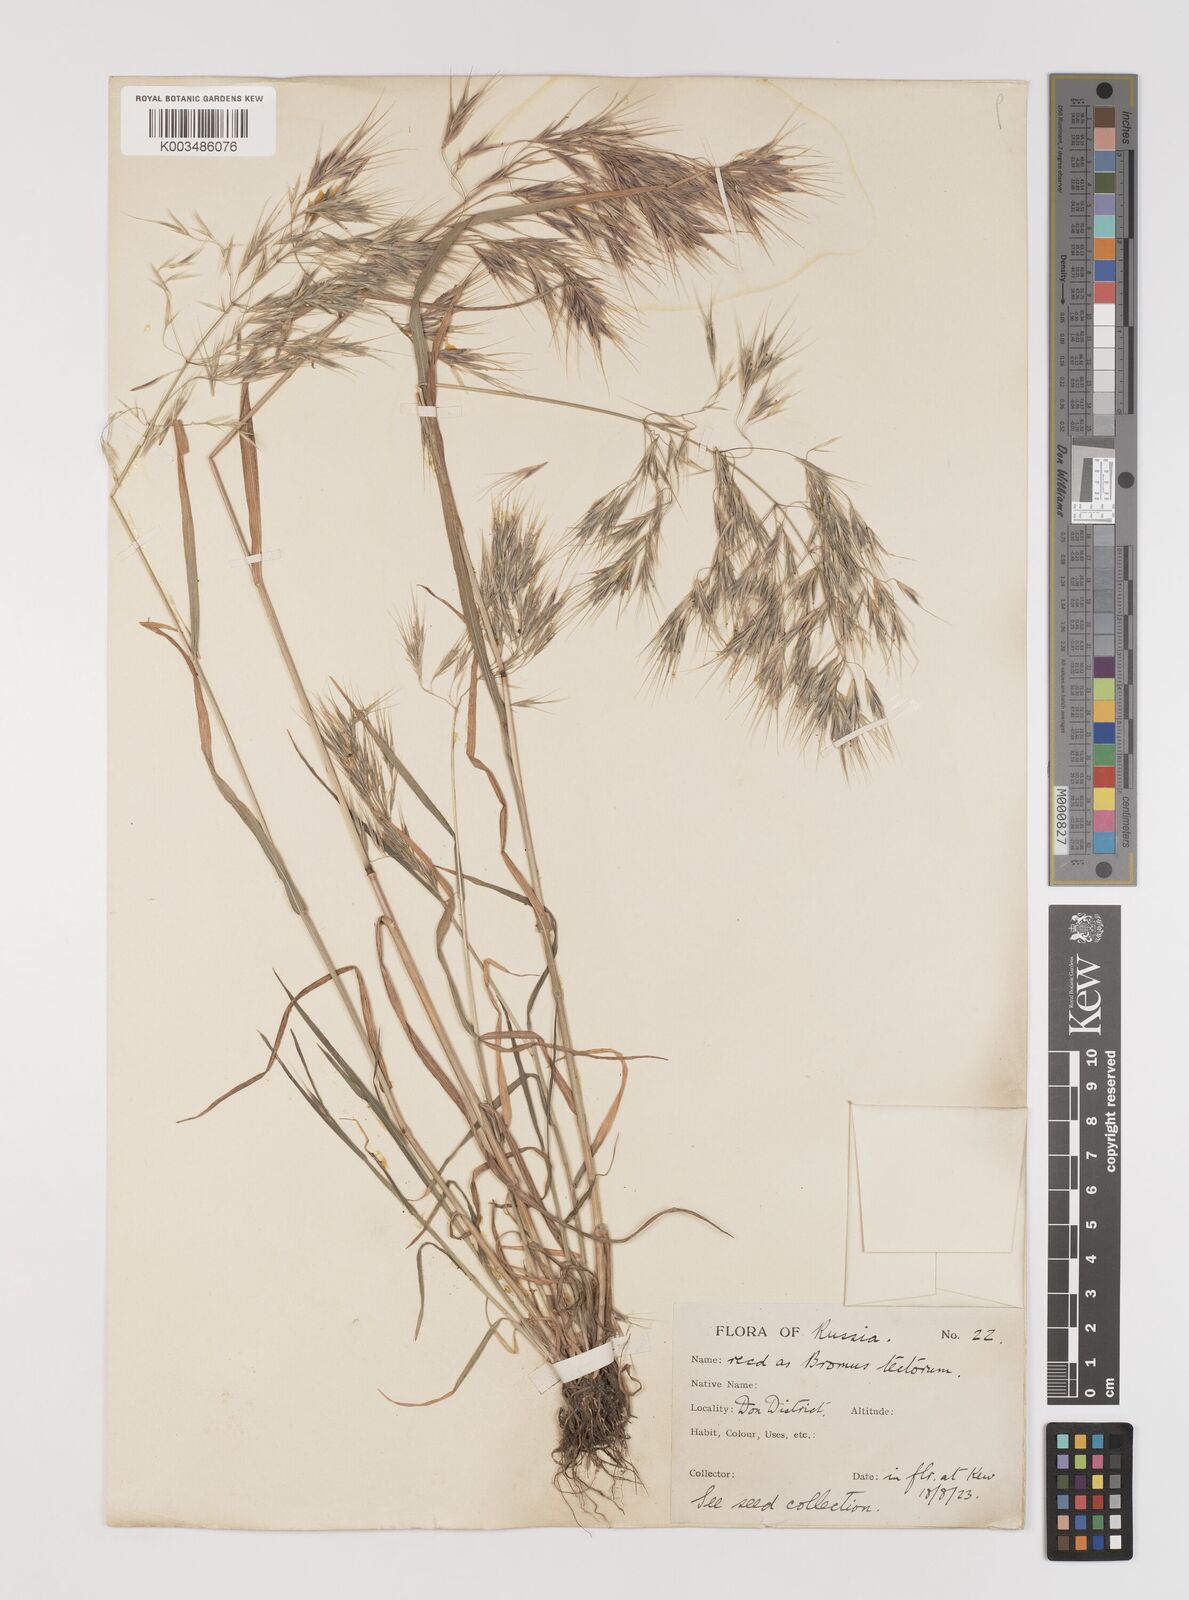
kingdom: Plantae
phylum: Tracheophyta
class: Liliopsida
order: Poales
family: Poaceae
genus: Bromus
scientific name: Bromus tectorum
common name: Cheatgrass
